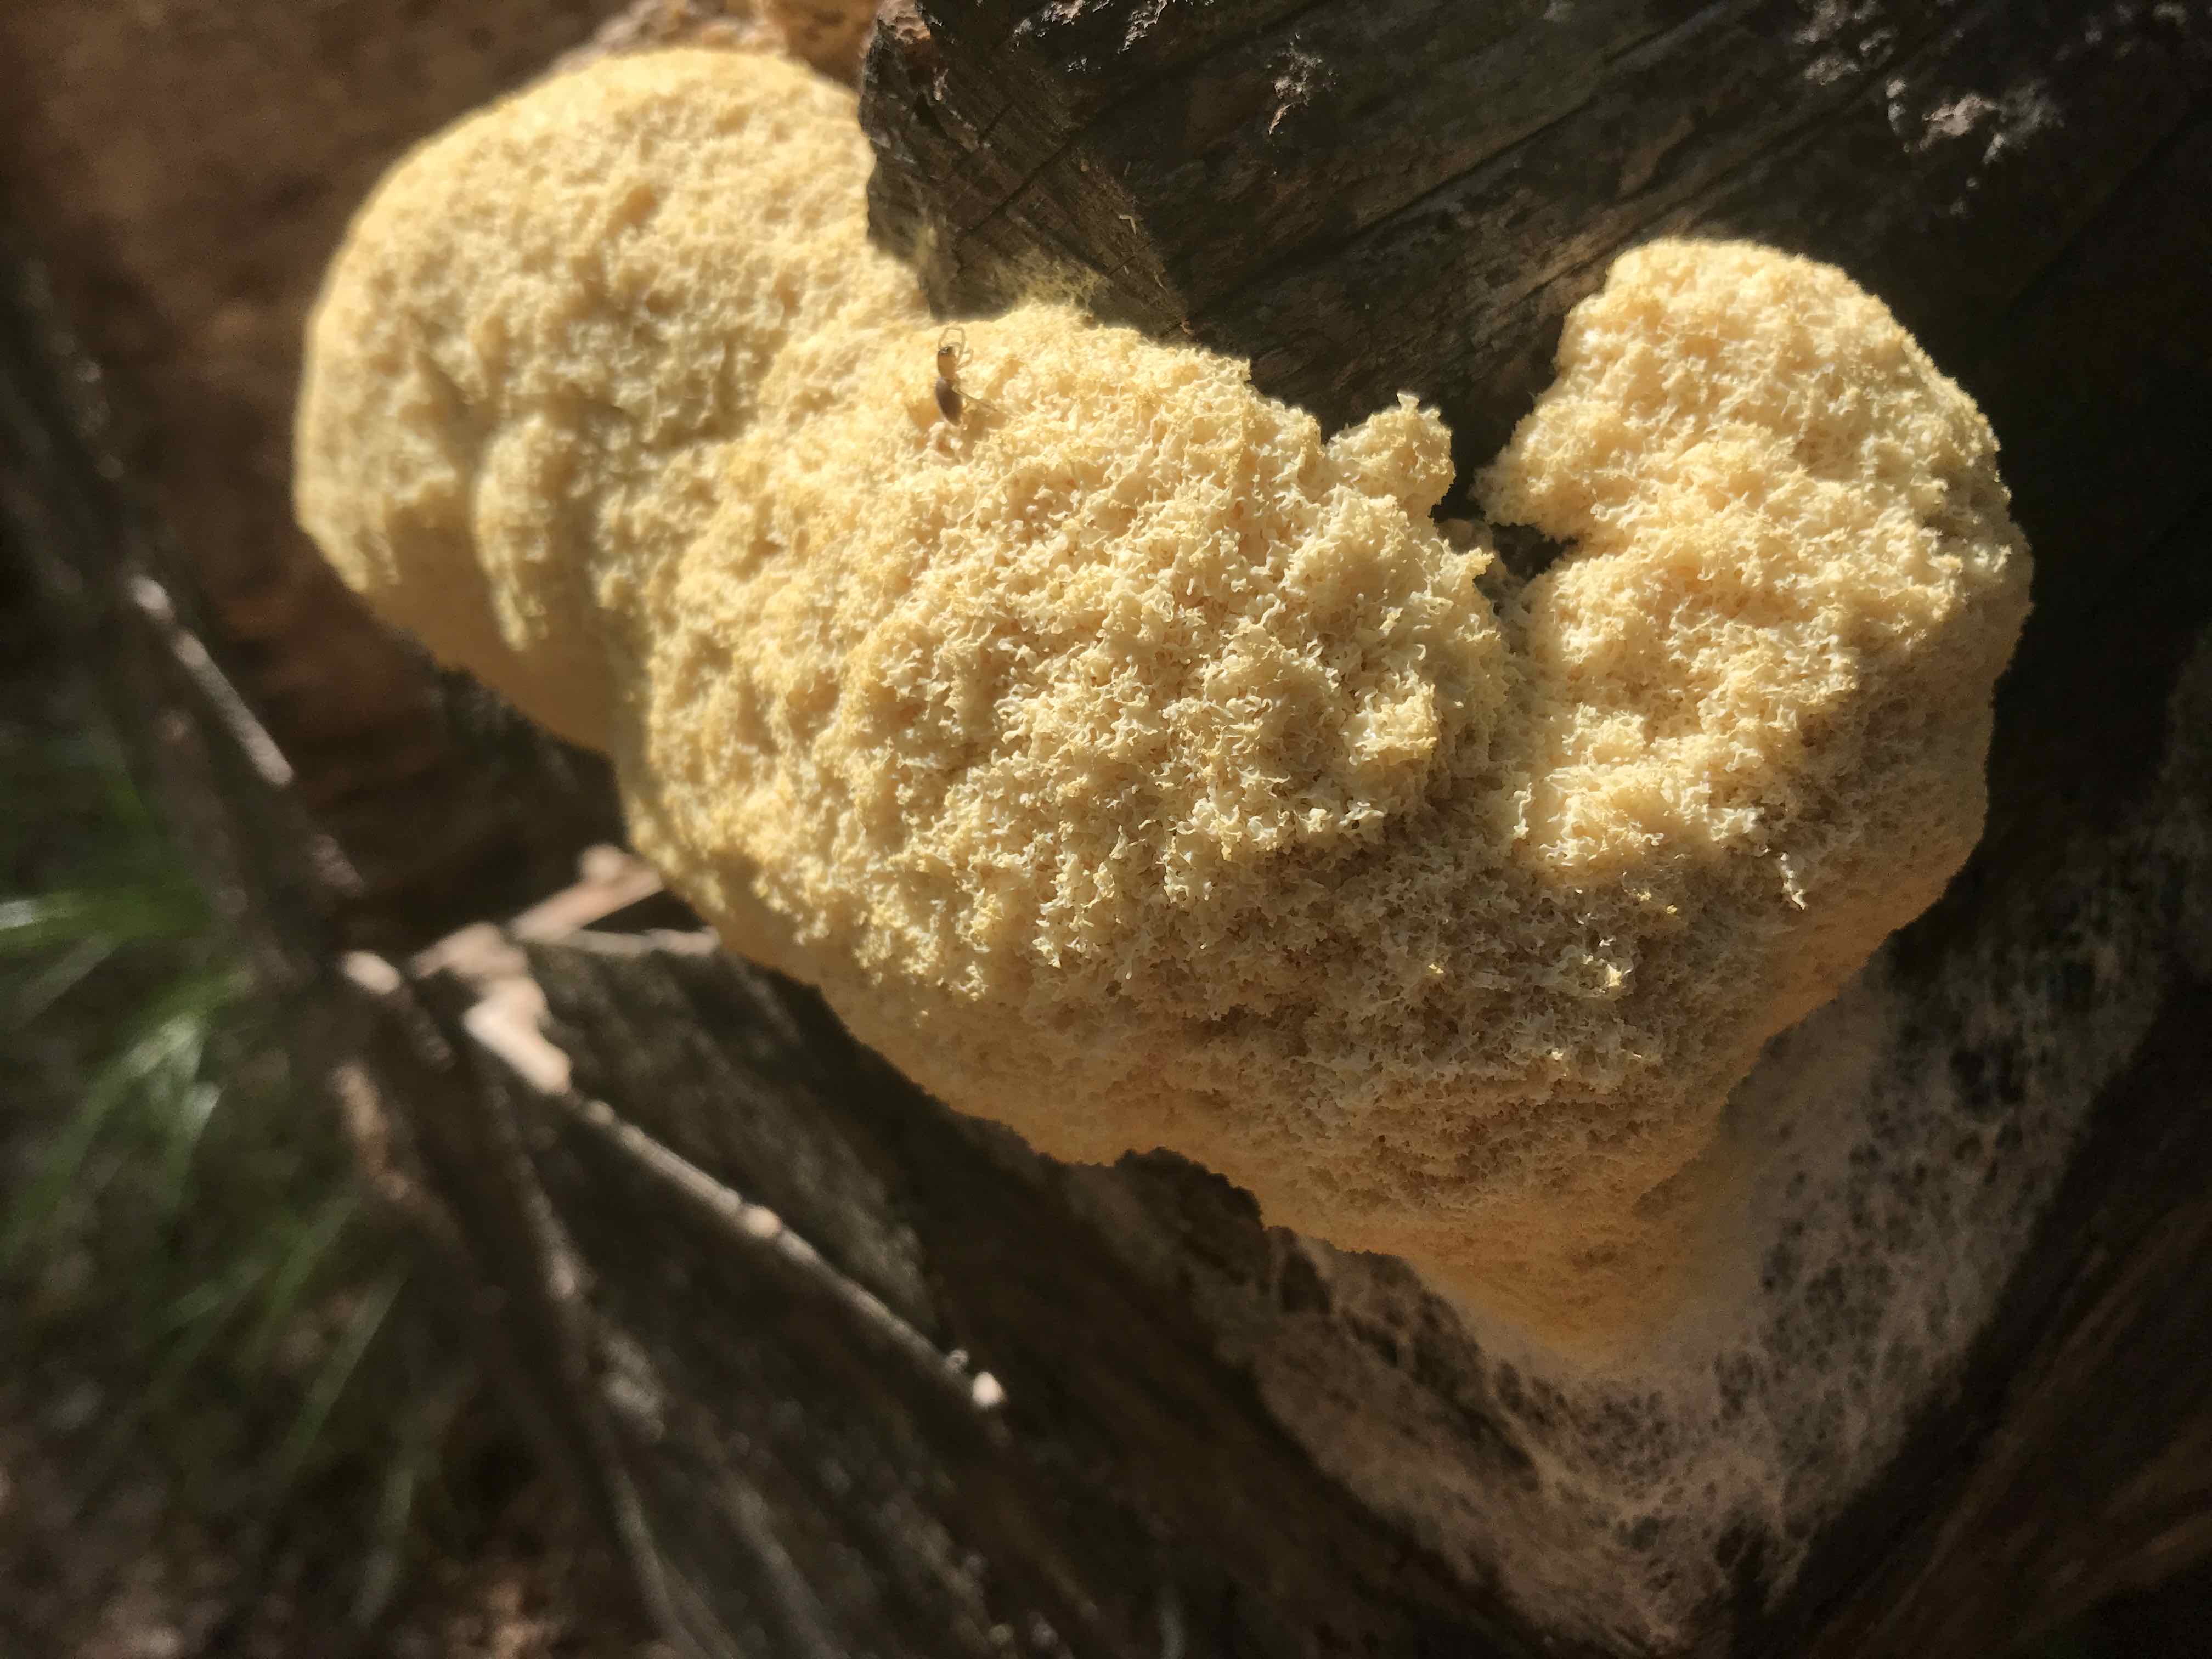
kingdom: Protozoa
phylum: Mycetozoa
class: Myxomycetes
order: Physarales
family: Physaraceae
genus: Fuligo
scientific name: Fuligo septica
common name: gul troldsmør
